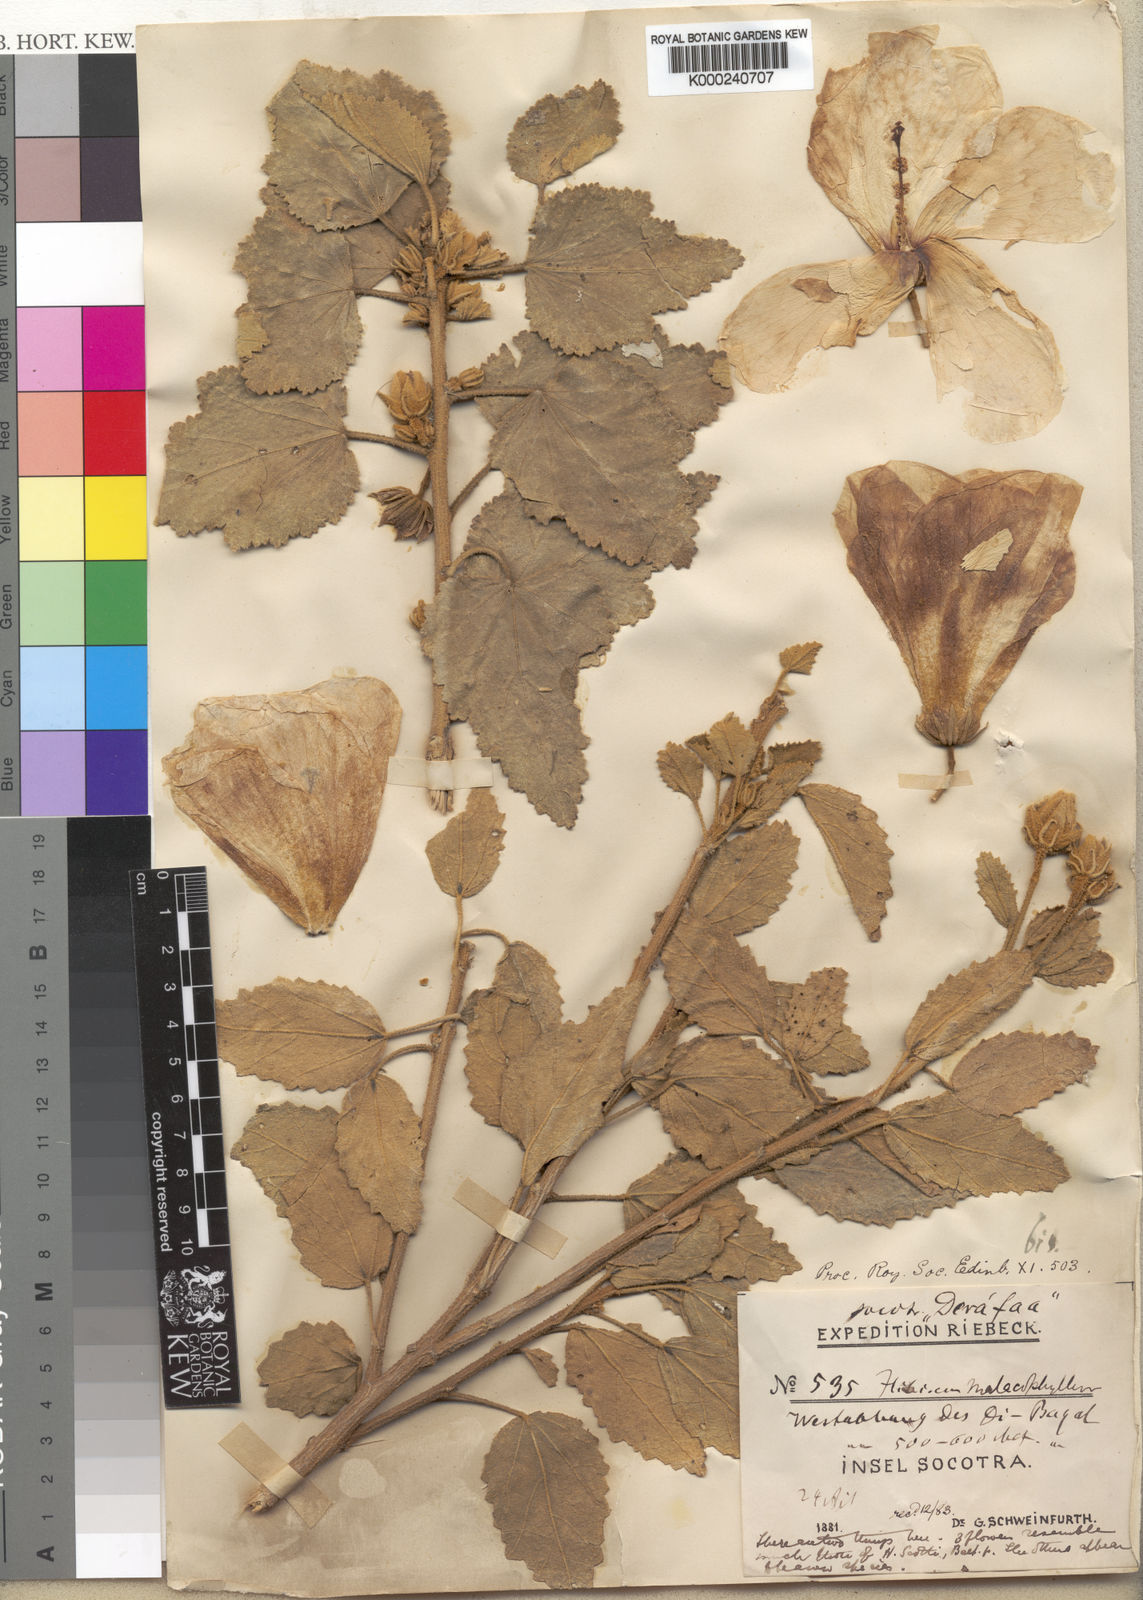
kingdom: Plantae
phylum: Tracheophyta
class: Magnoliopsida
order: Malvales
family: Malvaceae
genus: Hibiscus
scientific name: Hibiscus malacophyllus
